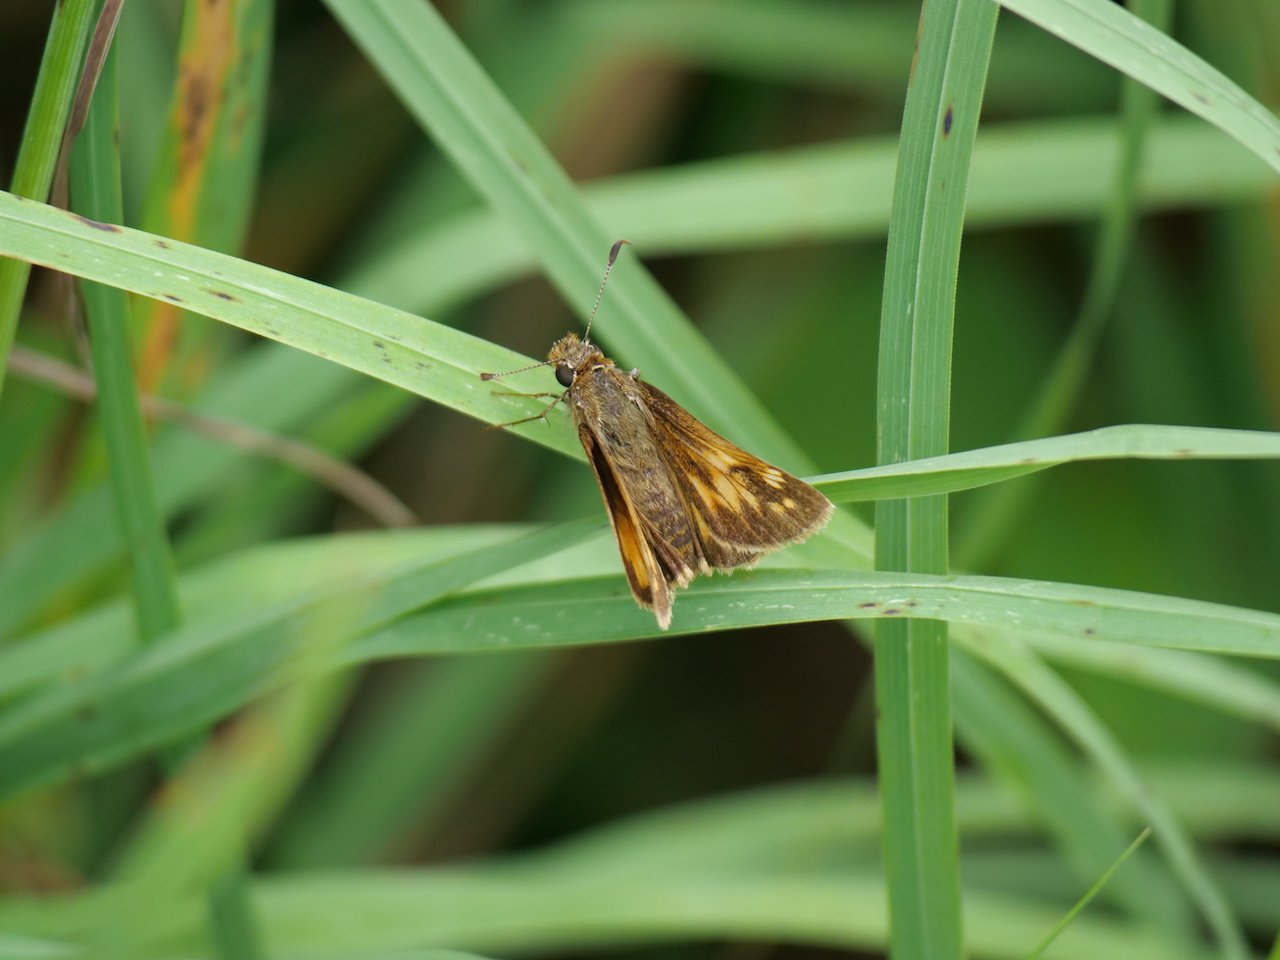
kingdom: Animalia
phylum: Arthropoda
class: Insecta
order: Lepidoptera
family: Hesperiidae
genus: Lon
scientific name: Lon hobomok
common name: Hobomok Skipper
